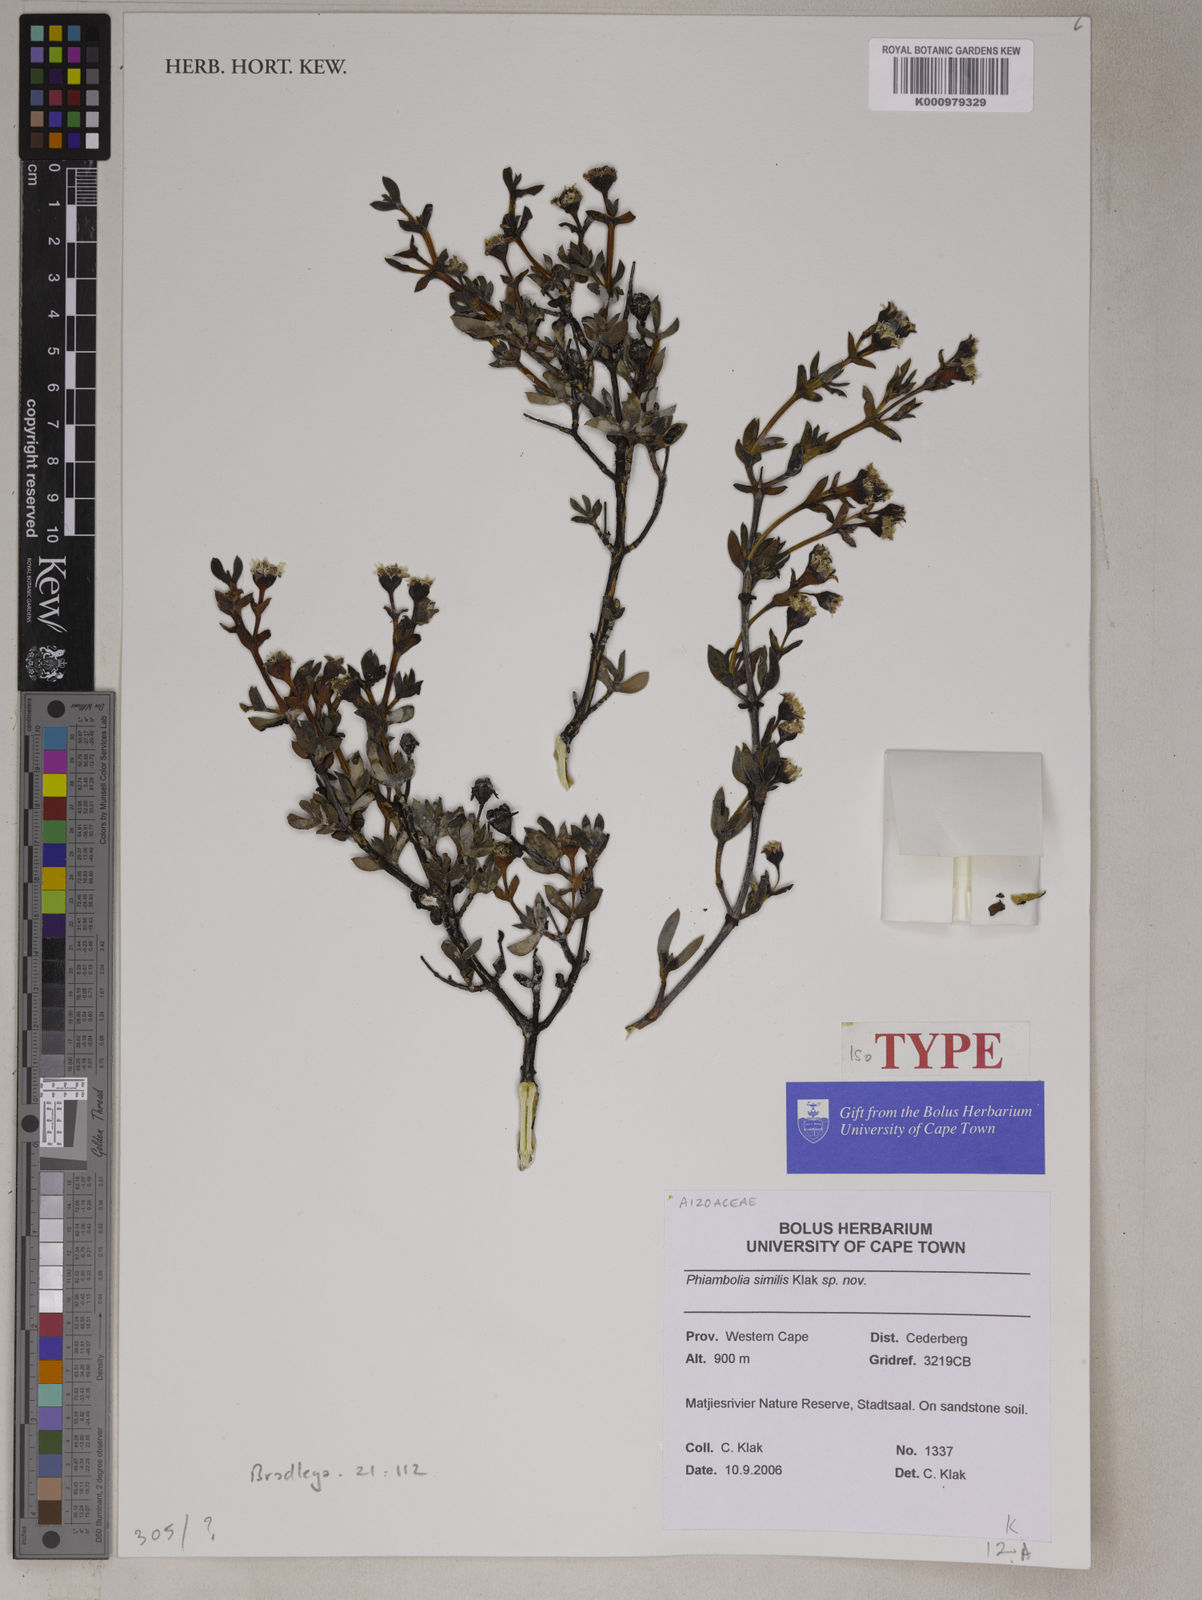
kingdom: Plantae
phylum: Tracheophyta
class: Magnoliopsida
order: Caryophyllales
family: Aizoaceae
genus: Phiambolia
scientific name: Phiambolia similis
